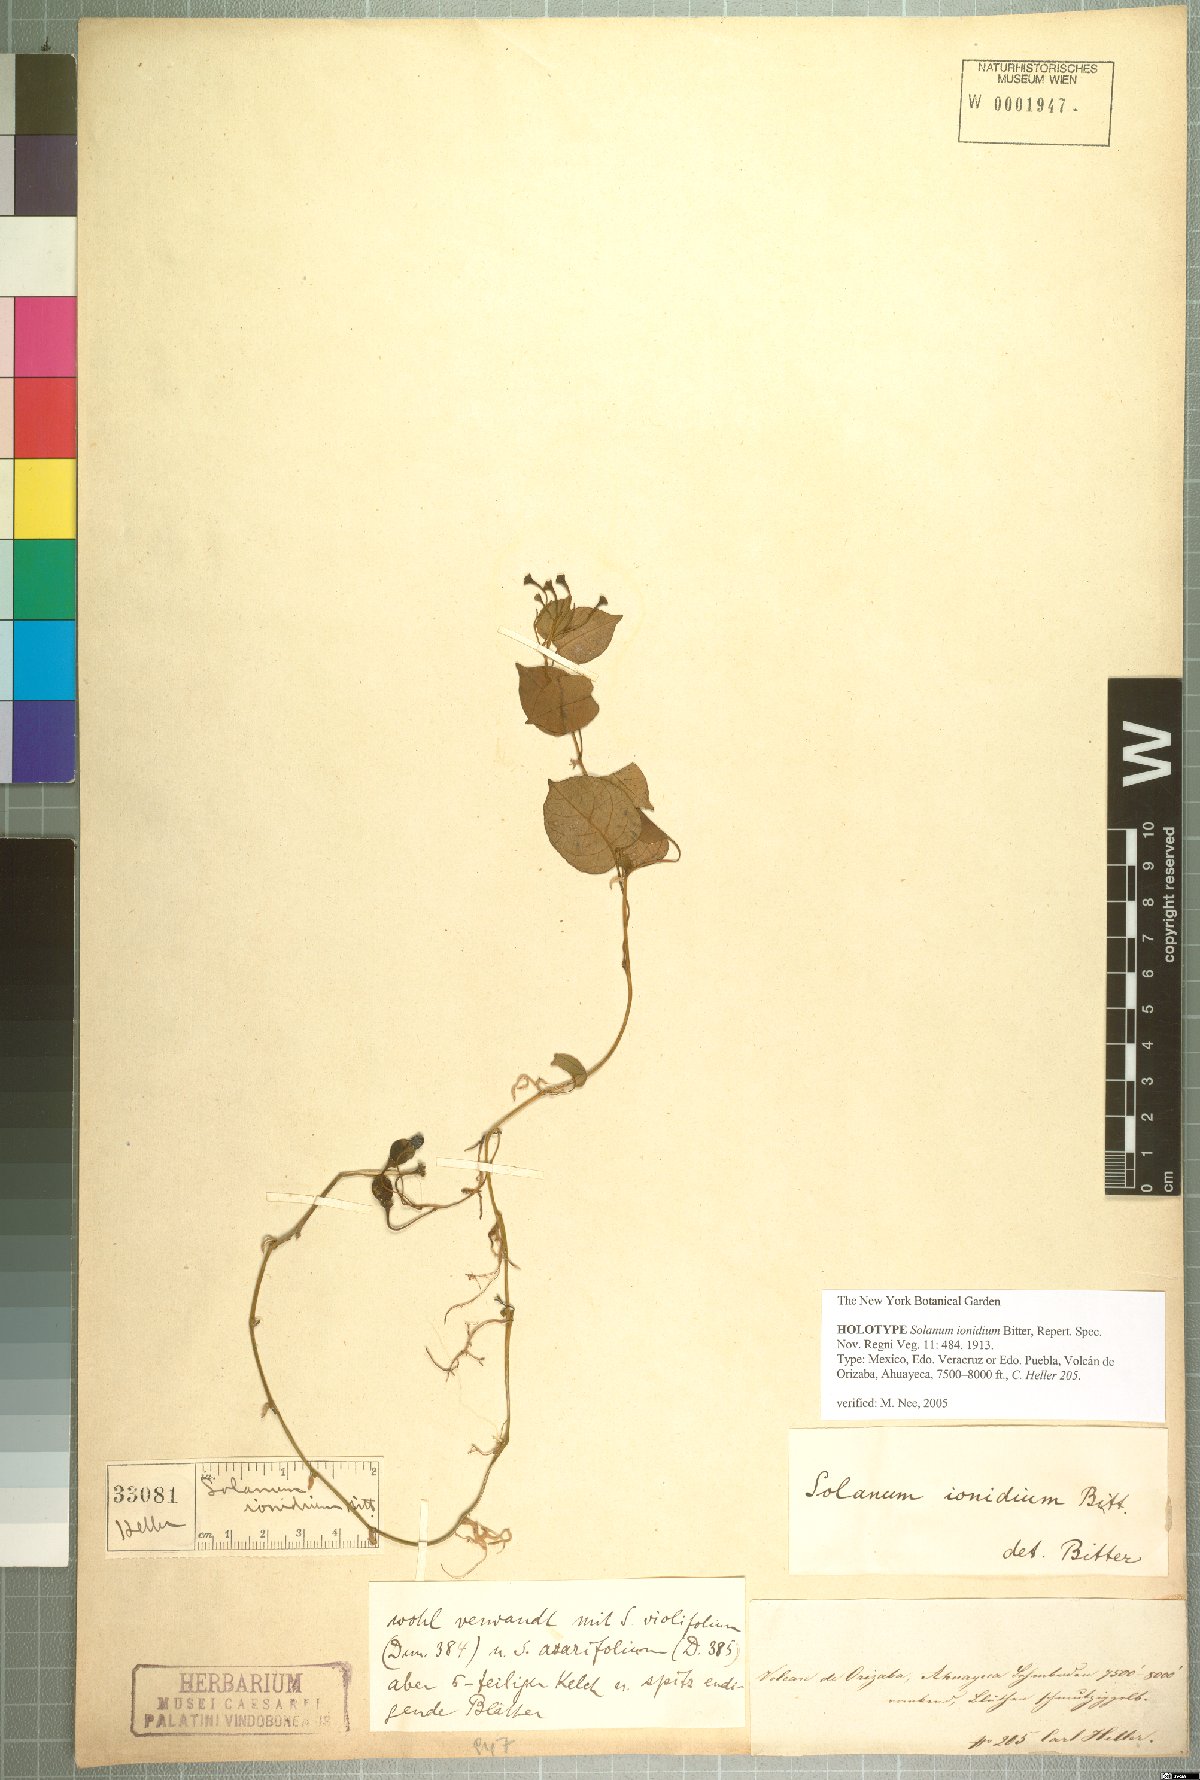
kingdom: Plantae
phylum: Tracheophyta
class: Magnoliopsida
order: Solanales
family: Solanaceae
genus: Solanum
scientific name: Solanum ionidium
